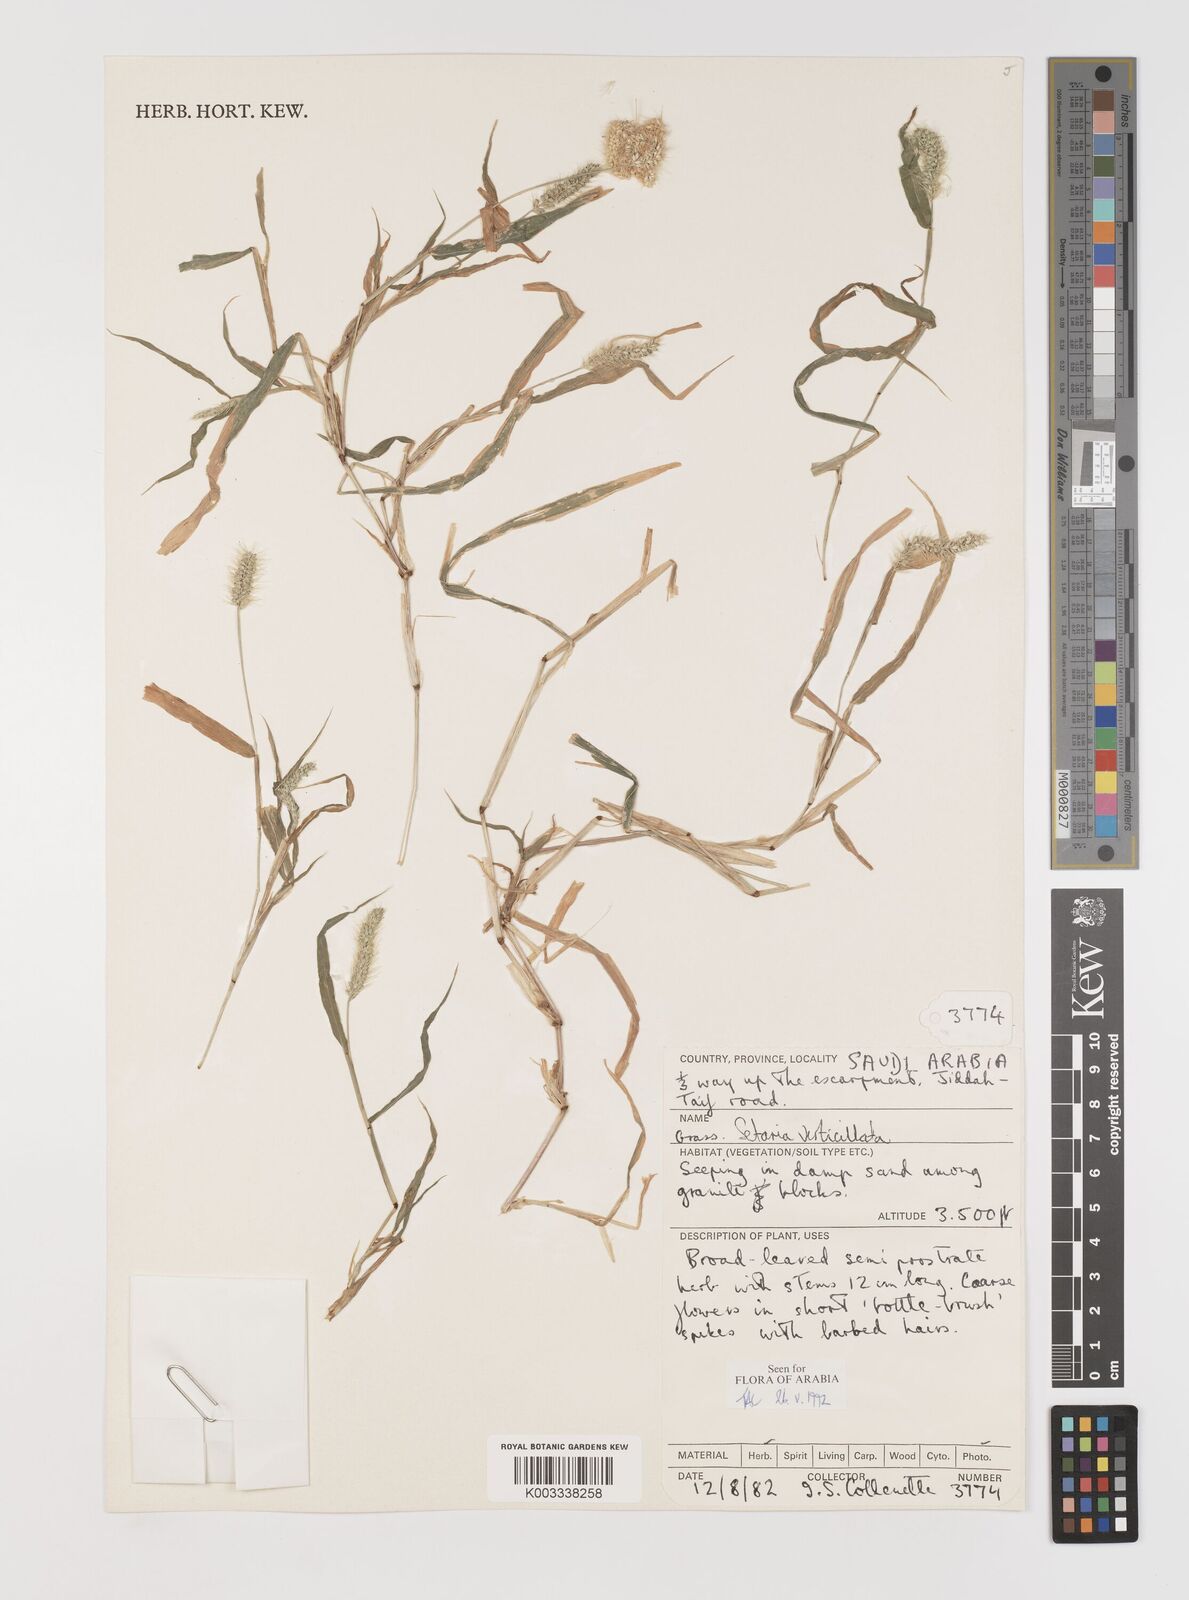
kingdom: Plantae
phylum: Tracheophyta
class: Liliopsida
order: Poales
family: Poaceae
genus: Setaria
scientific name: Setaria verticillata
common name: Hooked bristlegrass
